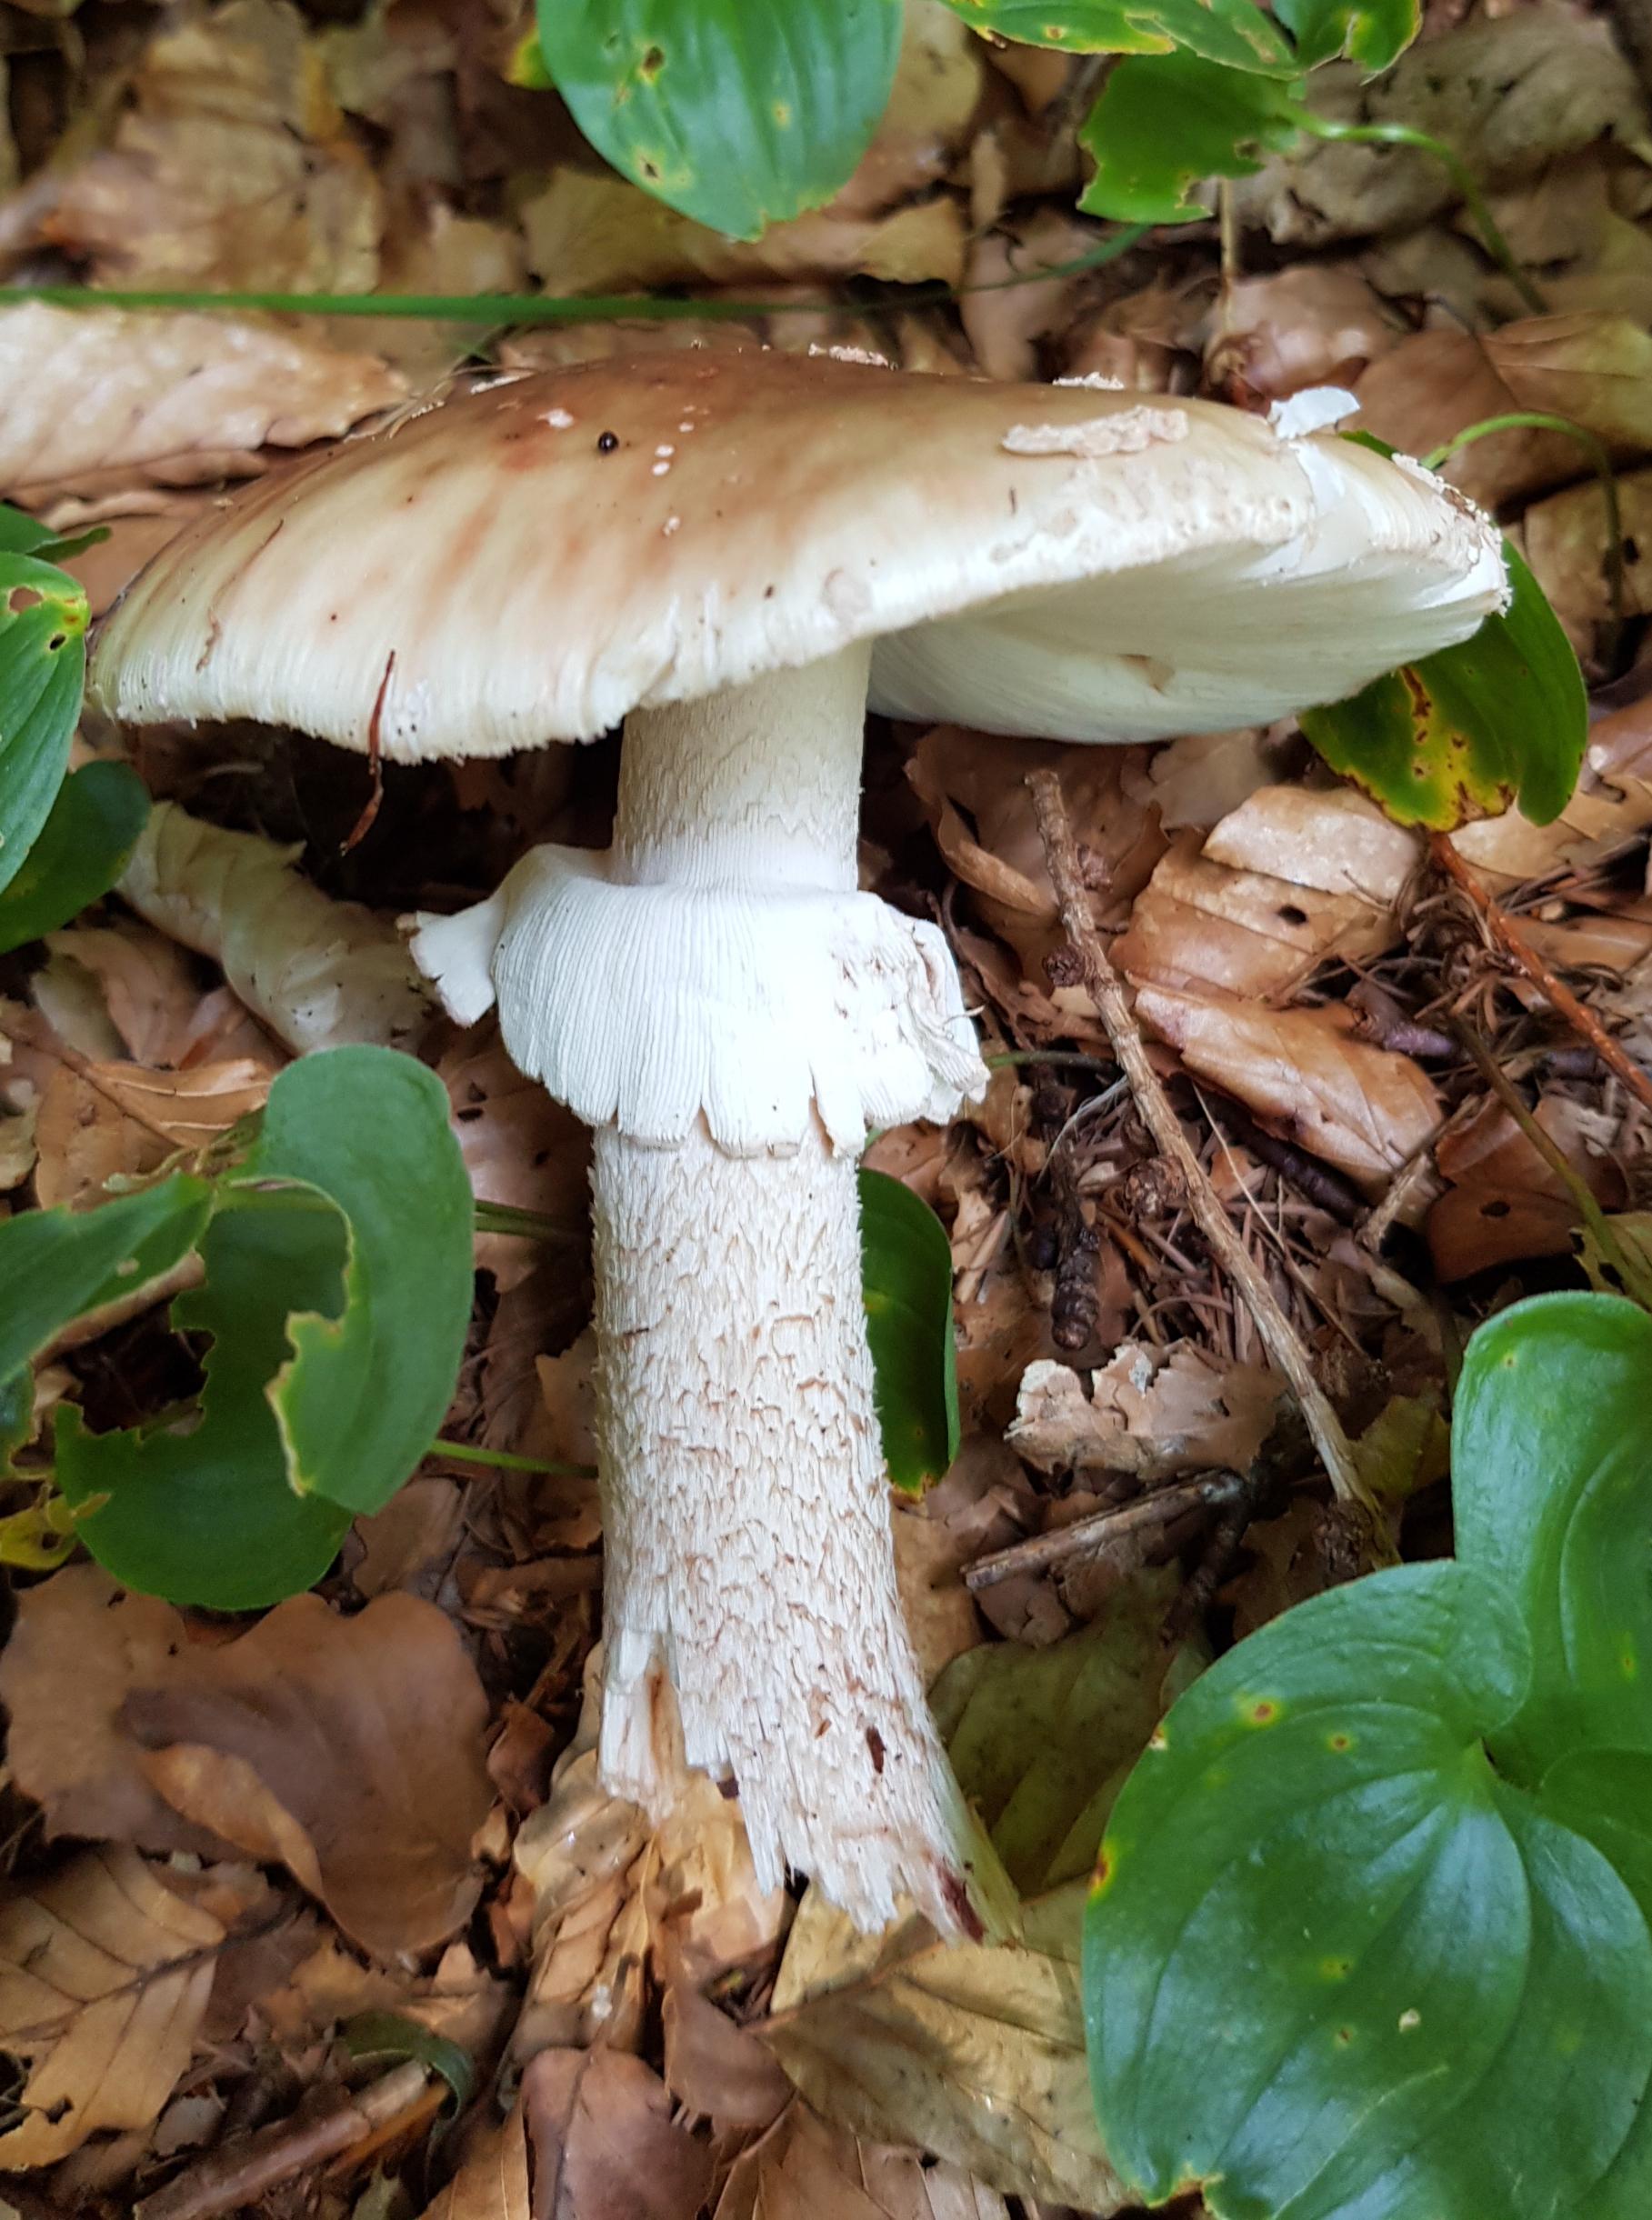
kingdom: Fungi
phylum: Basidiomycota
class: Agaricomycetes
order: Agaricales
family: Amanitaceae
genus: Amanita
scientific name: Amanita rubescens
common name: rødmende fluesvamp
